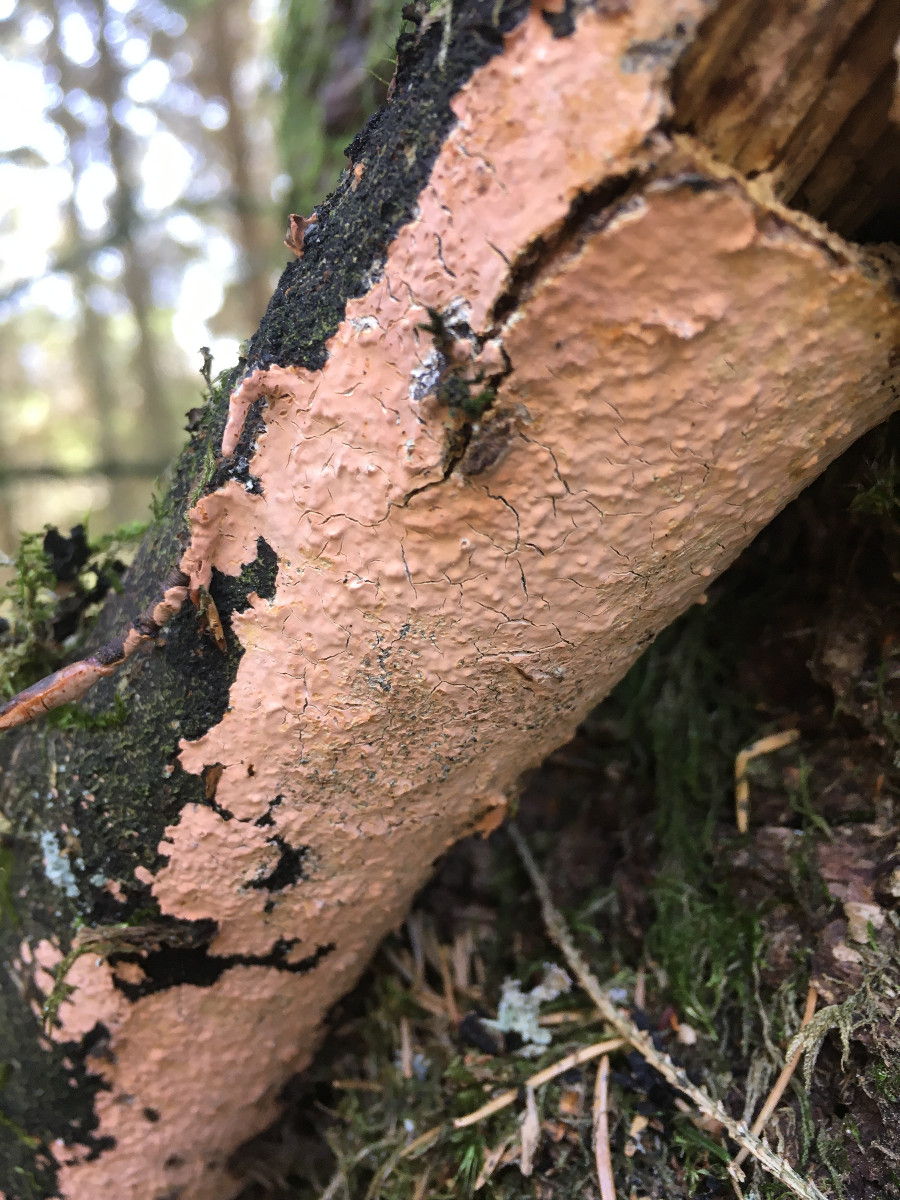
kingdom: Fungi
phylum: Basidiomycota
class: Agaricomycetes
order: Russulales
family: Peniophoraceae
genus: Peniophora
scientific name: Peniophora incarnata
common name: laksefarvet voksskind
